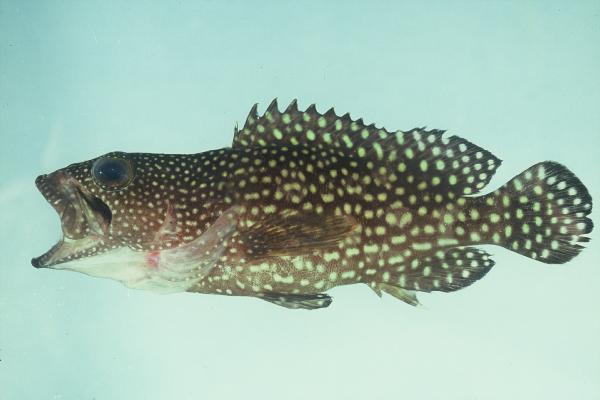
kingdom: Animalia
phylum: Chordata
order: Perciformes
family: Serranidae
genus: Epinephelus
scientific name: Epinephelus ongus
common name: White-streaked grouper
